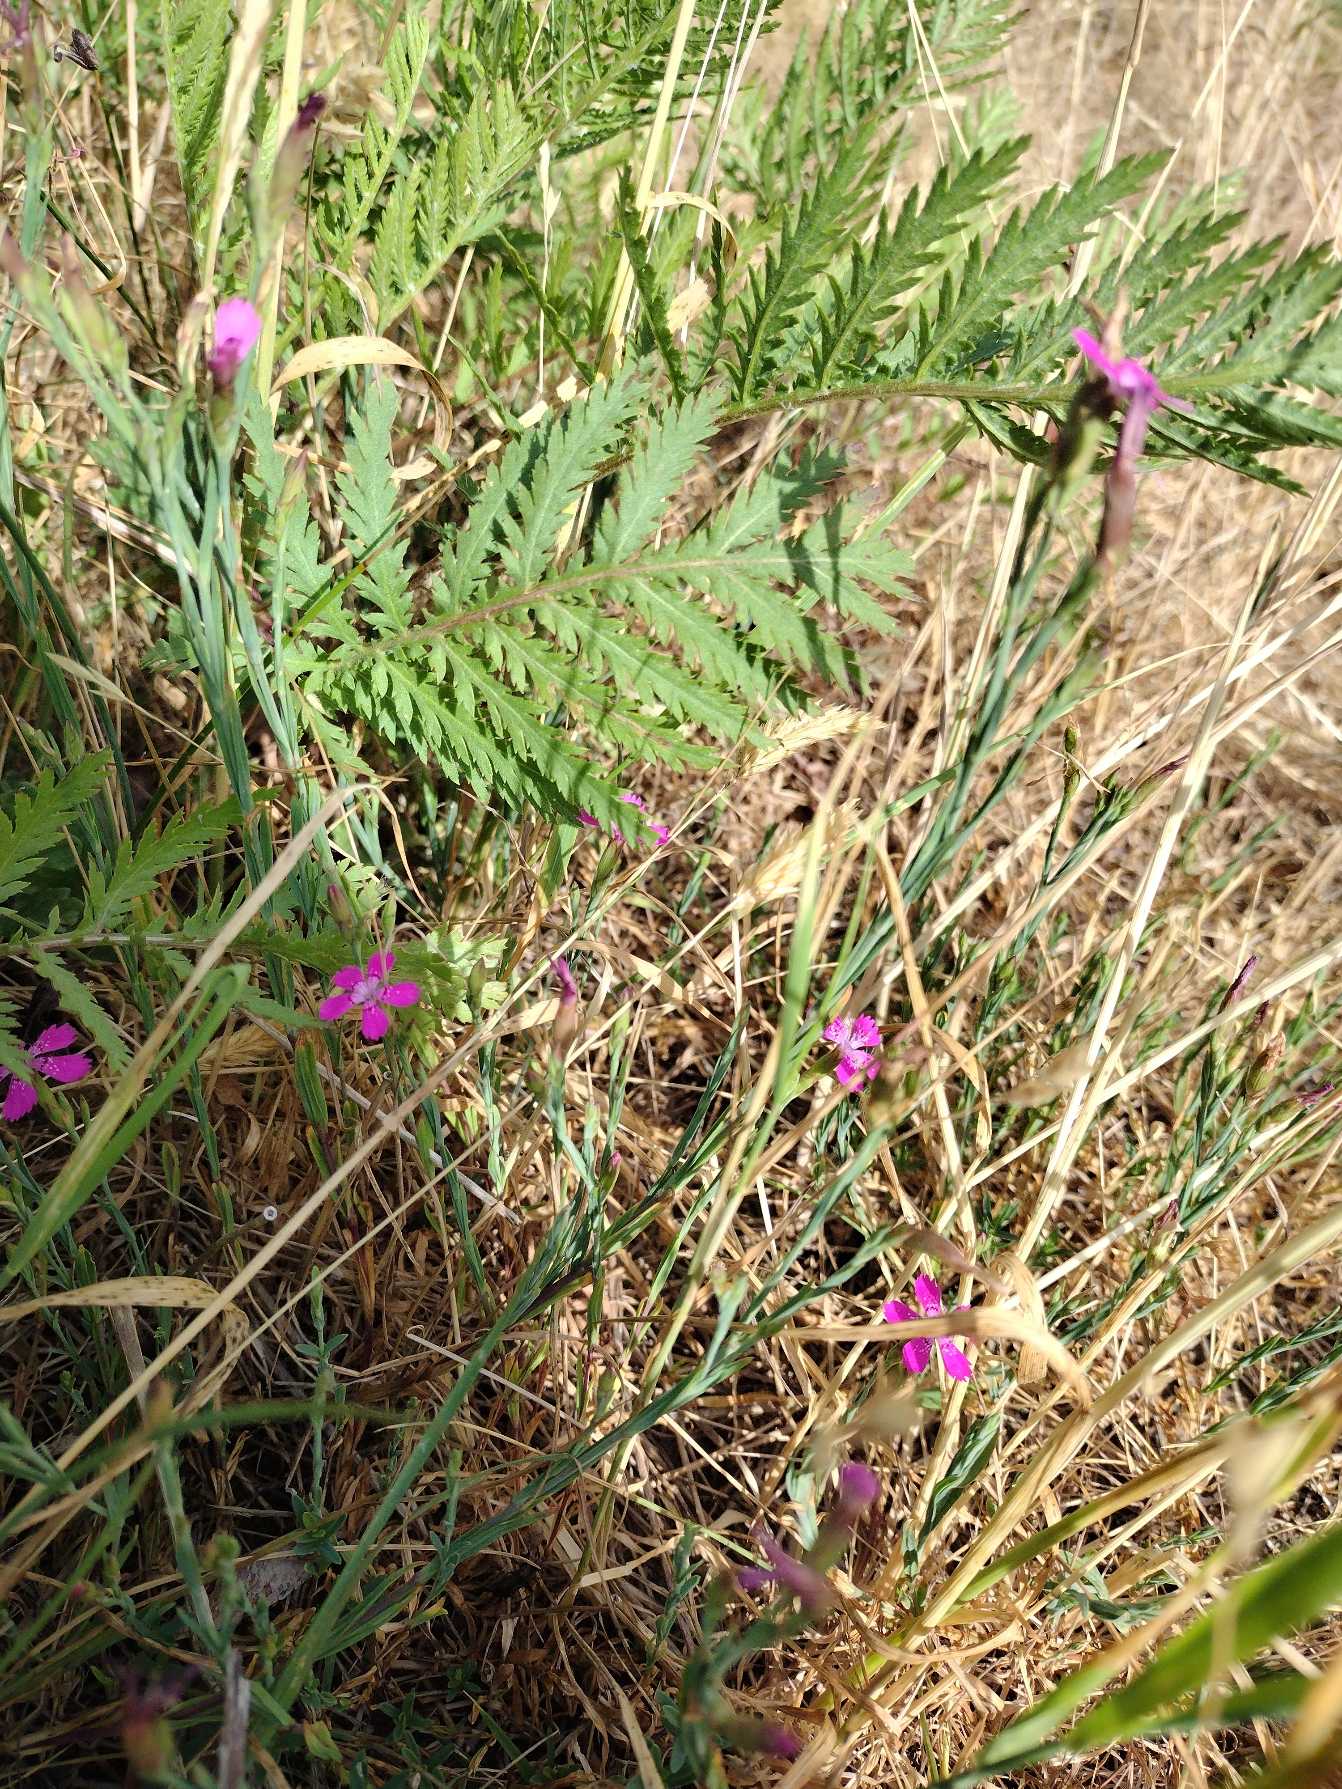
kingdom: Plantae
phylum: Tracheophyta
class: Magnoliopsida
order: Caryophyllales
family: Caryophyllaceae
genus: Dianthus
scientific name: Dianthus deltoides
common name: Bakke-nellike
